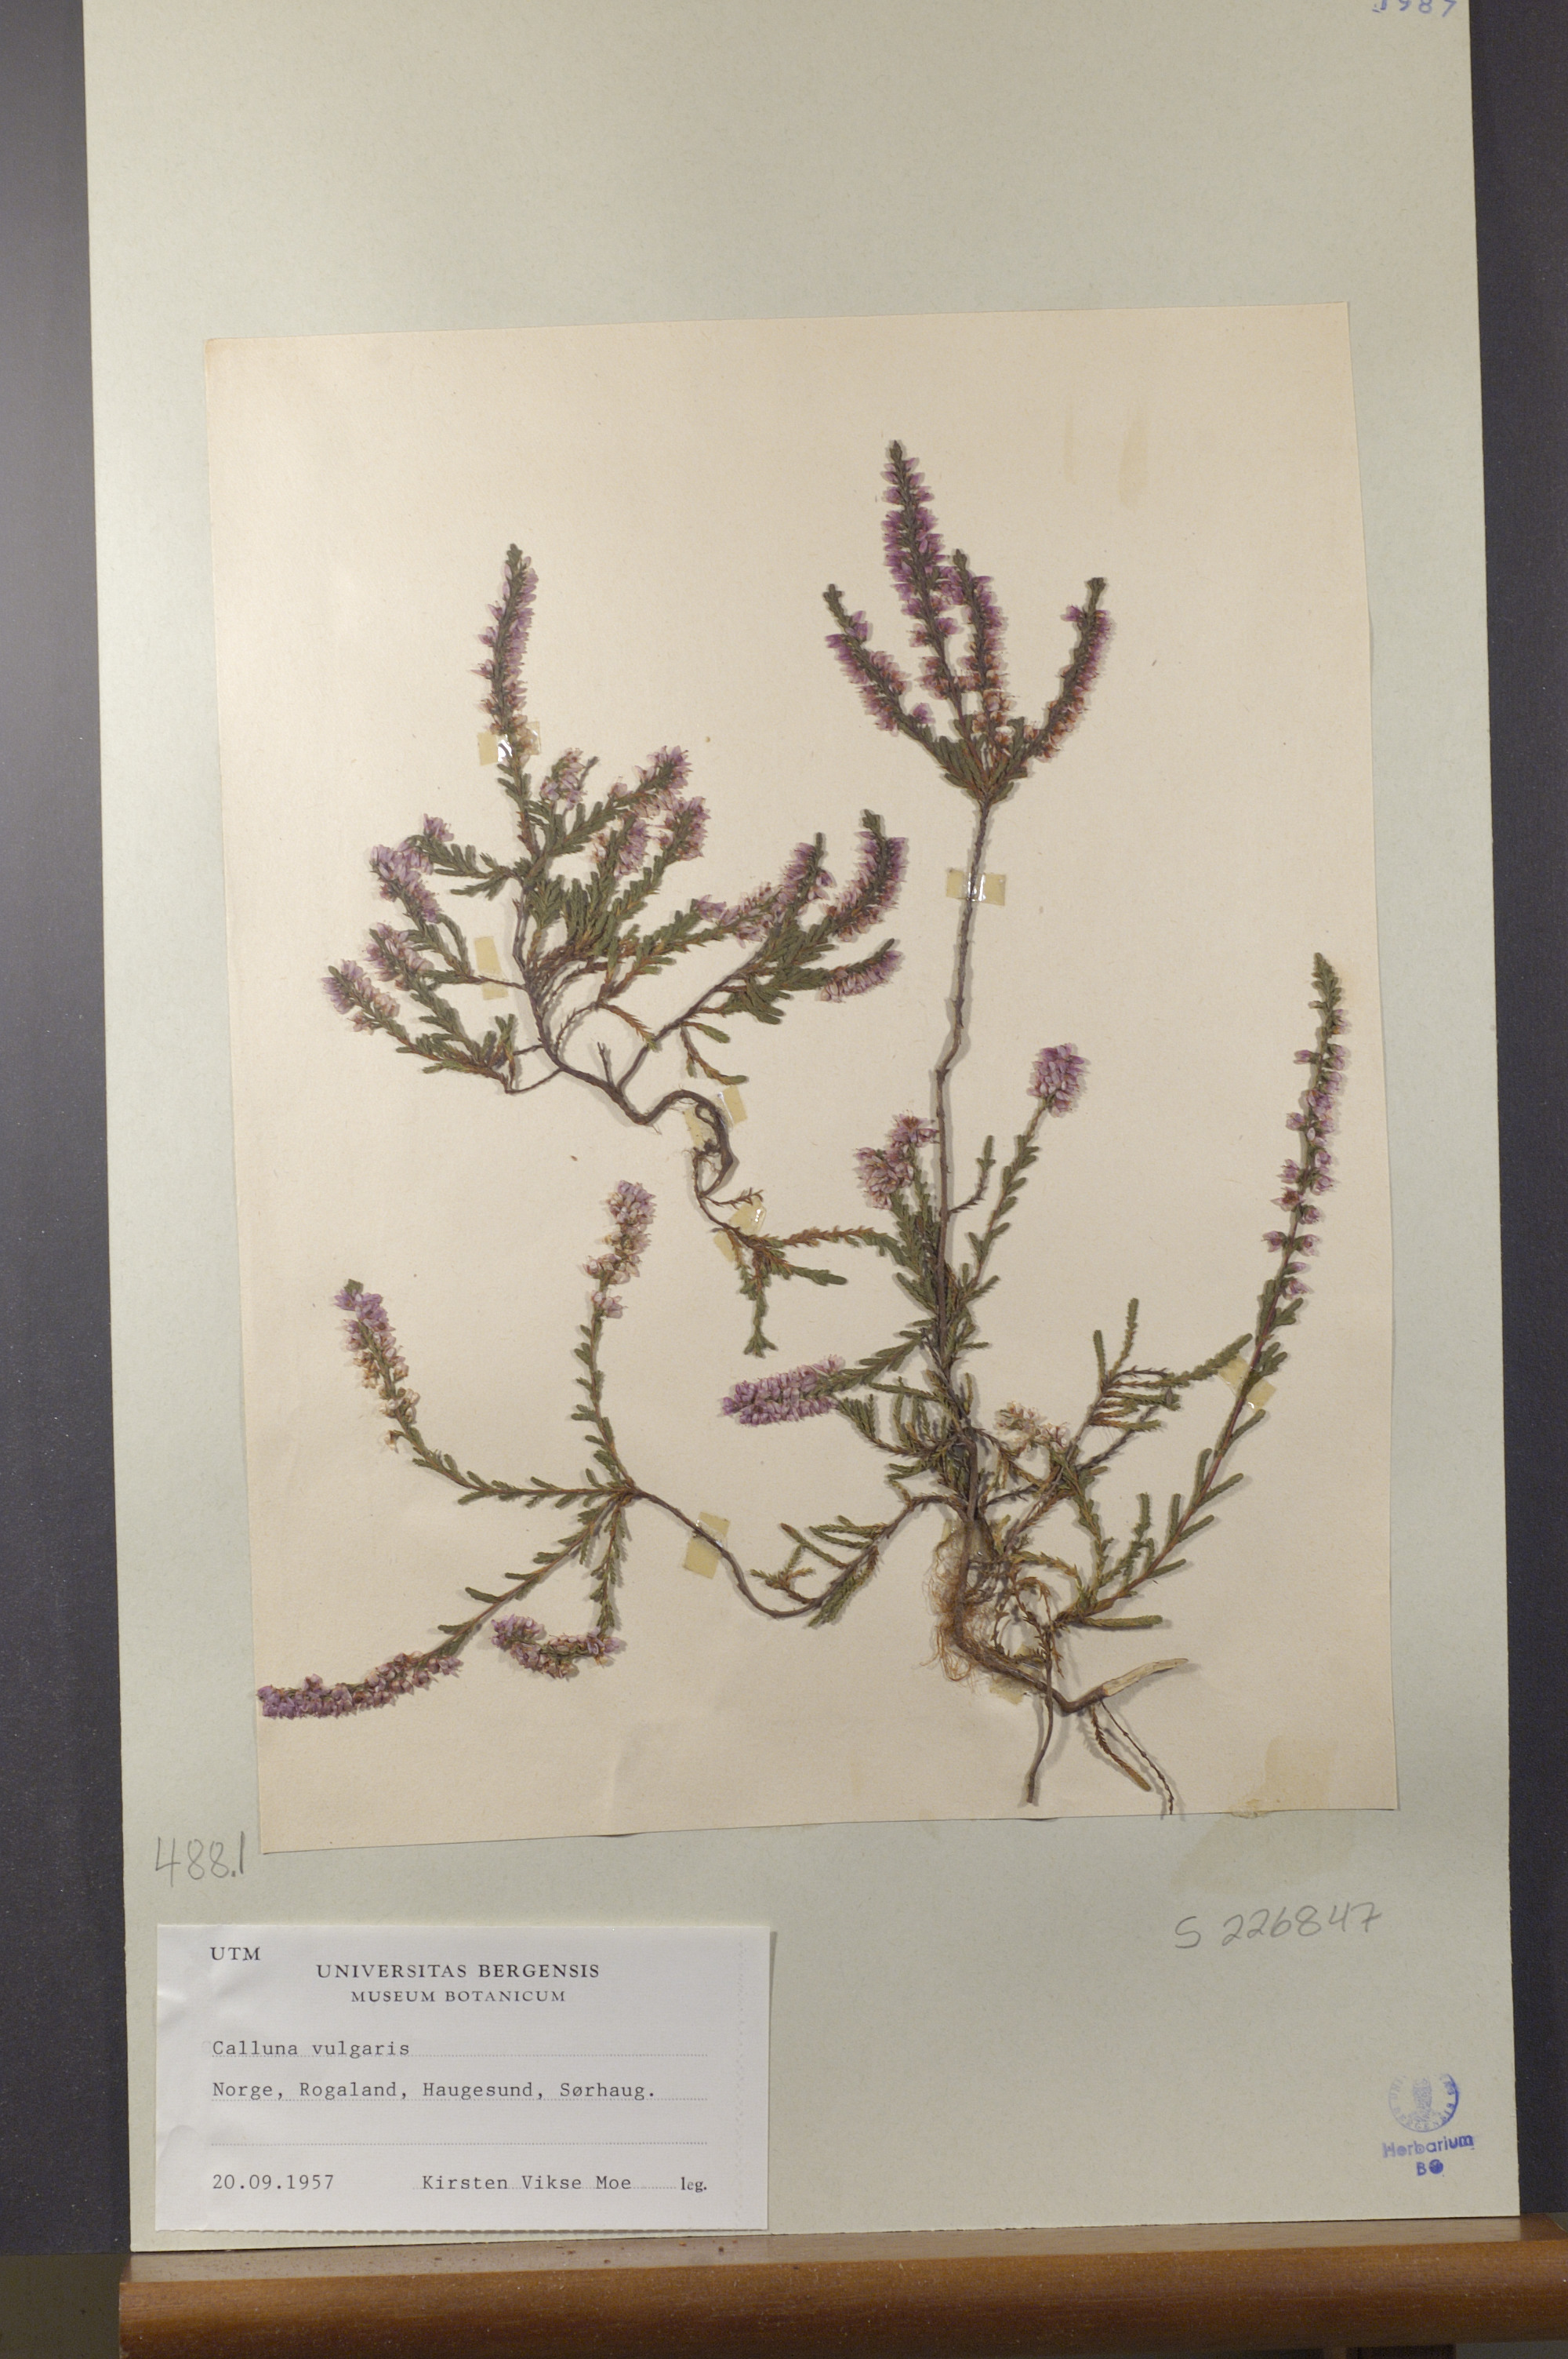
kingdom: Plantae
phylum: Tracheophyta
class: Magnoliopsida
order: Ericales
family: Ericaceae
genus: Calluna
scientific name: Calluna vulgaris
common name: Heather
